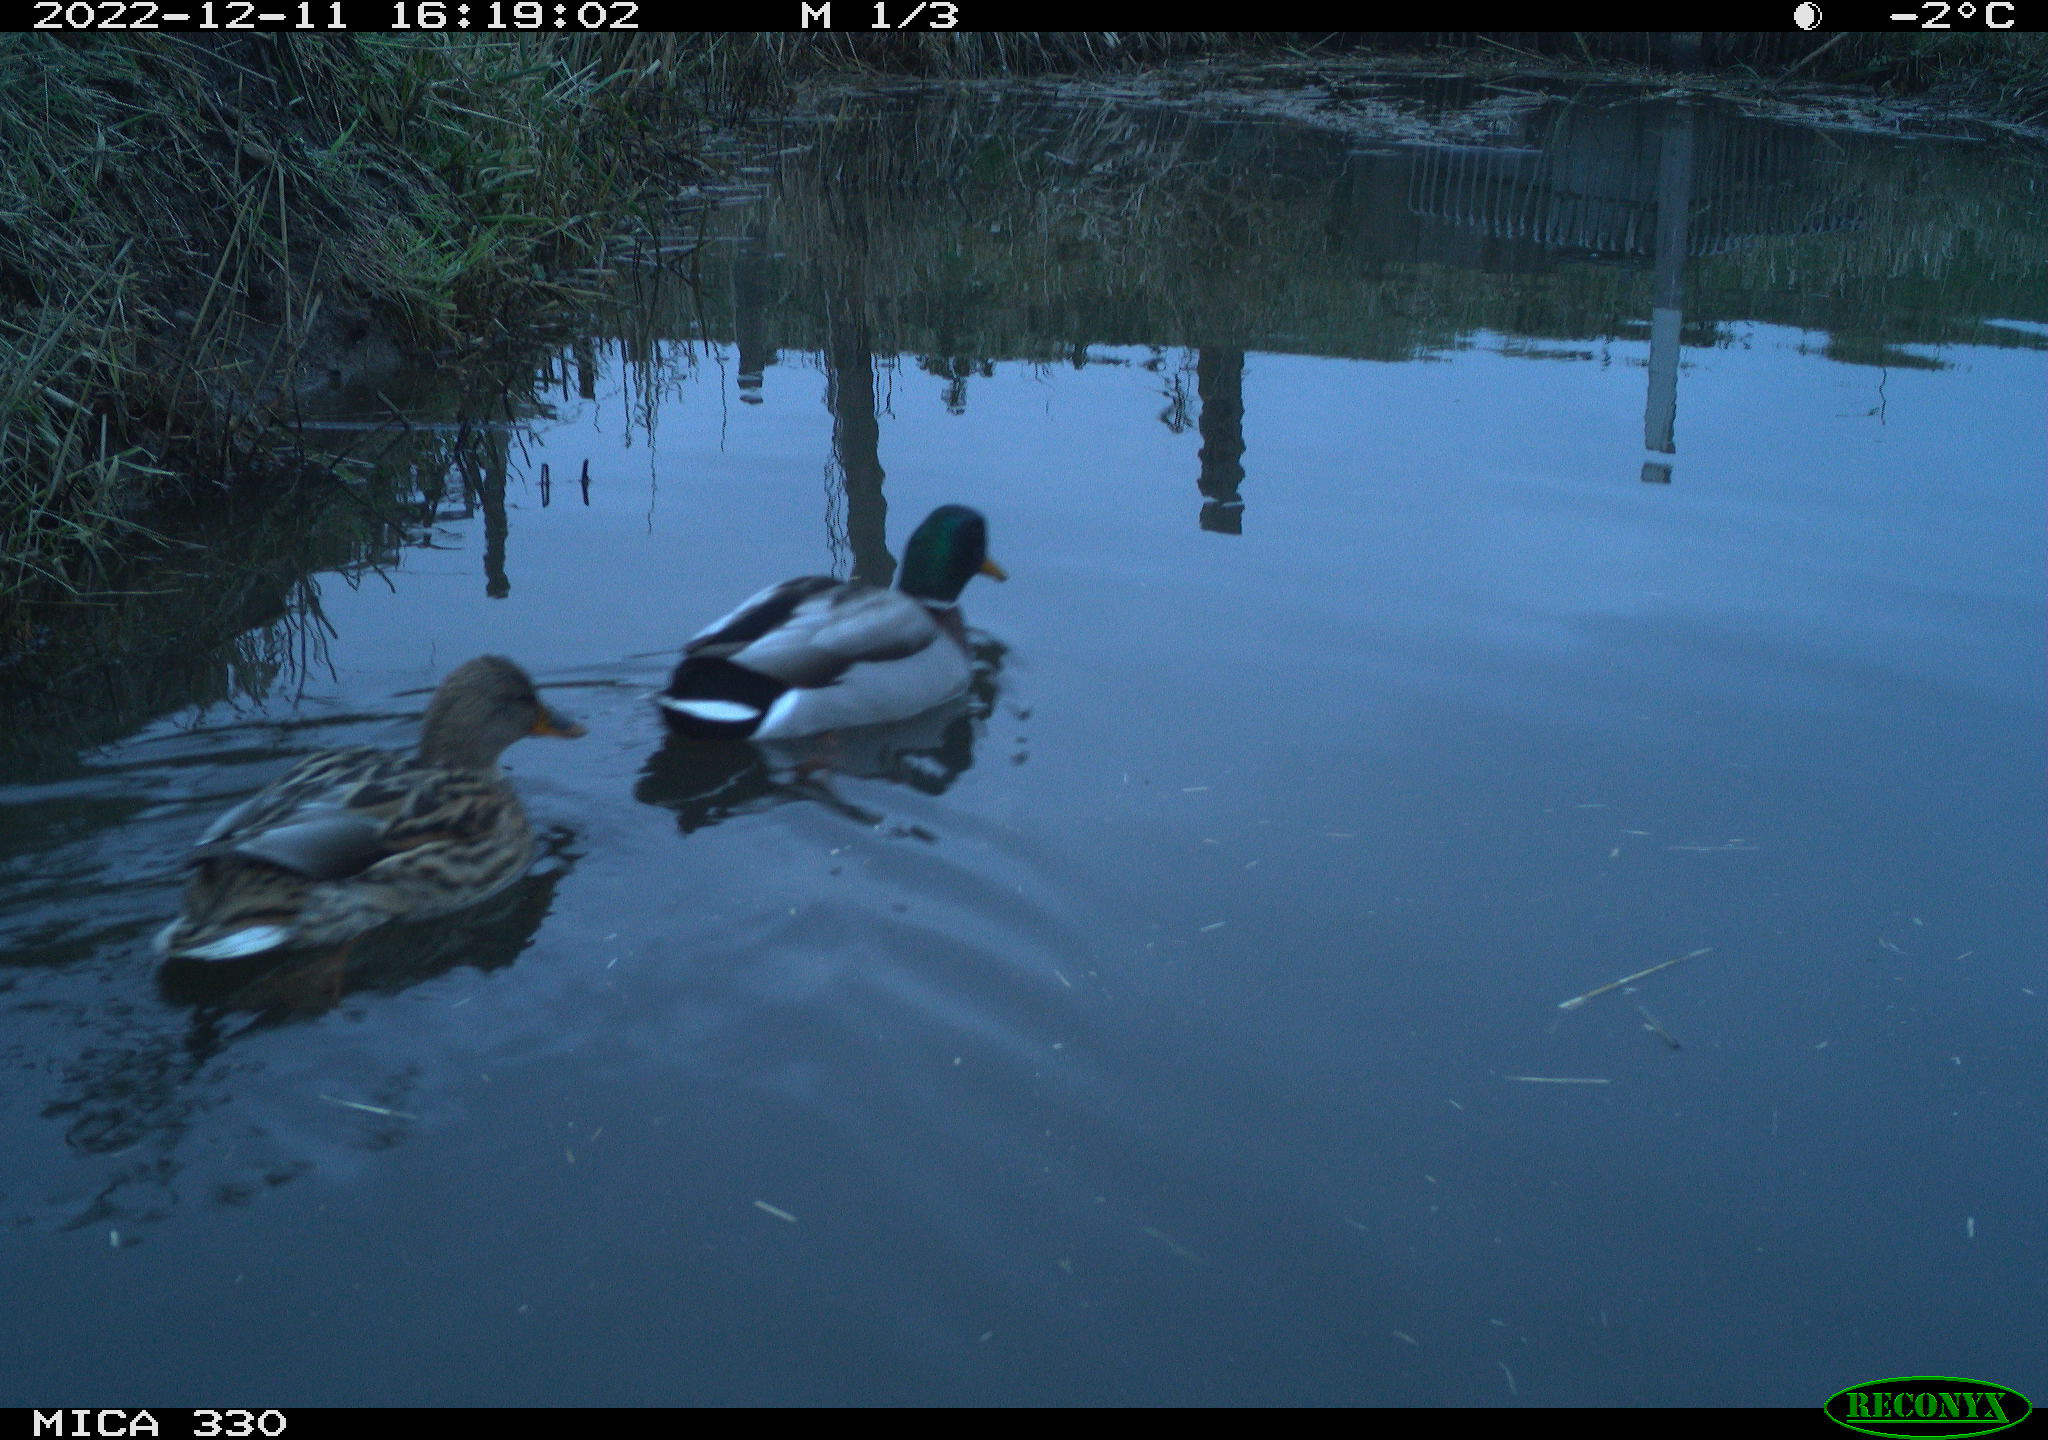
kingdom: Animalia
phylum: Chordata
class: Aves
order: Anseriformes
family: Anatidae
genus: Anas
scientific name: Anas
